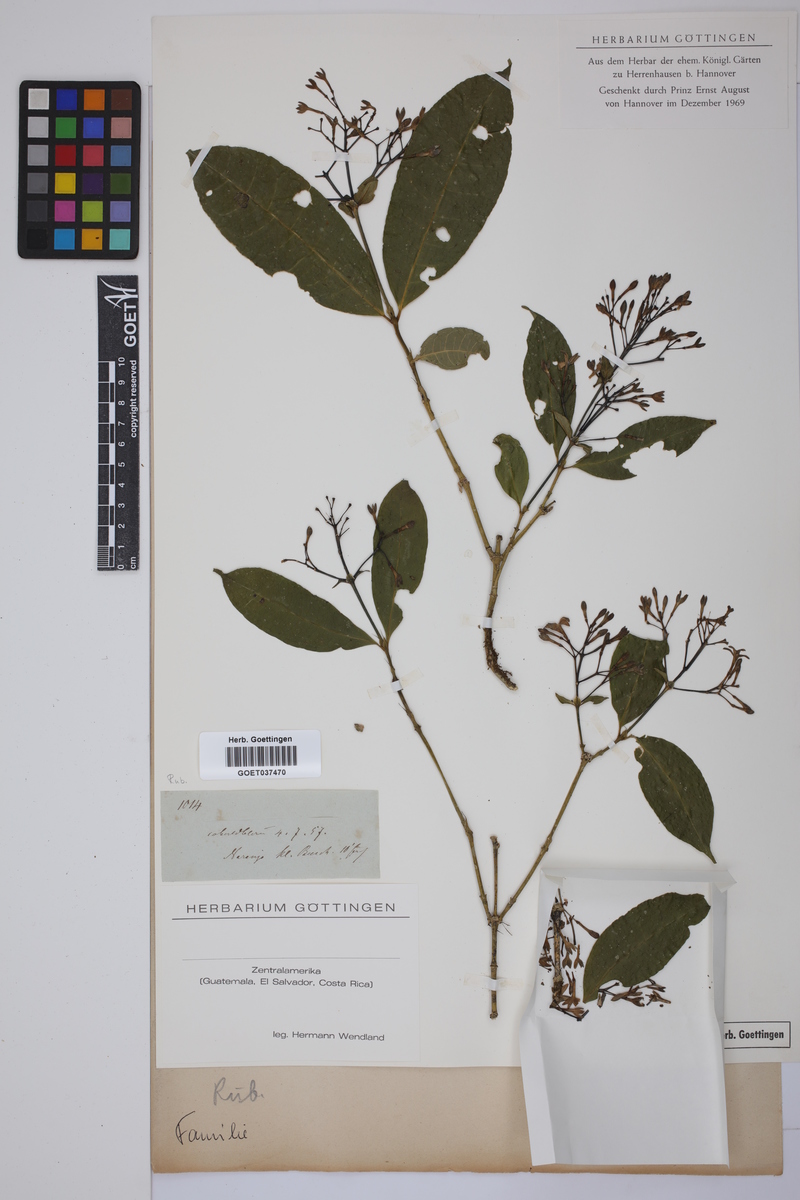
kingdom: Plantae
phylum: Tracheophyta
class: Magnoliopsida
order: Gentianales
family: Rubiaceae
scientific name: Rubiaceae
